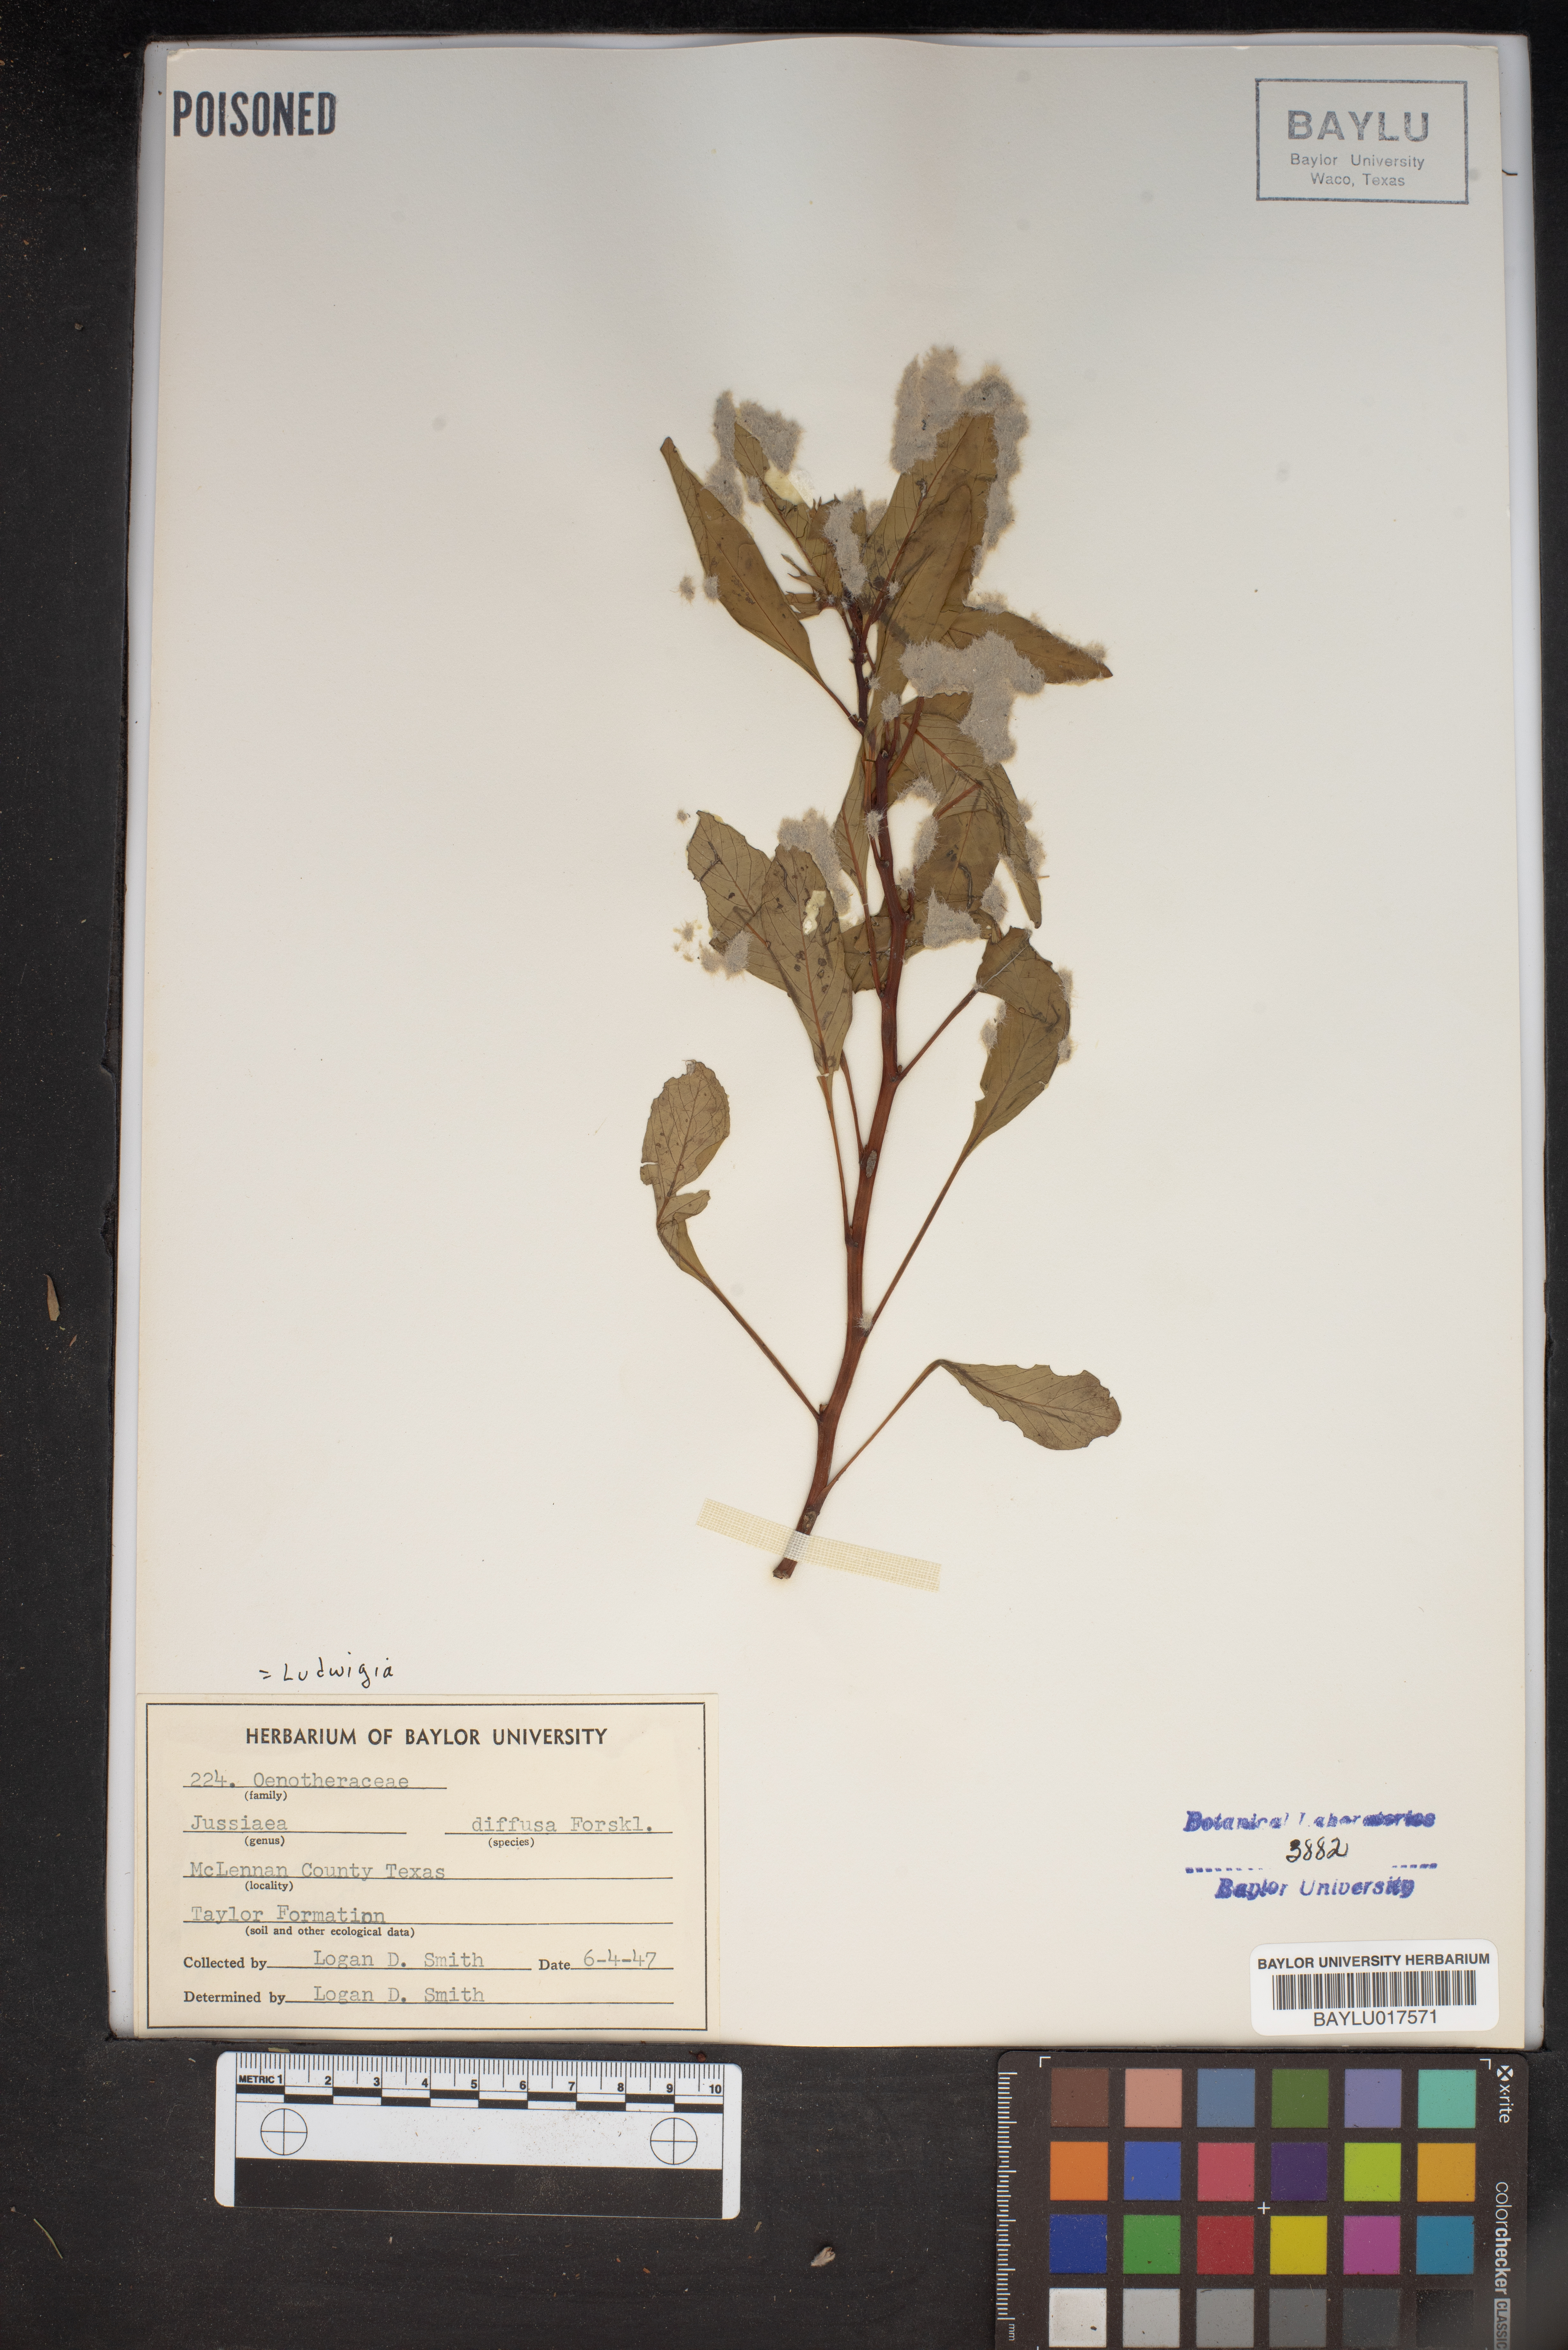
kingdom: Plantae
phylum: Tracheophyta
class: Magnoliopsida
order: Myrtales
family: Onagraceae
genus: Ludwigia
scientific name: Ludwigia adscendens
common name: Creeping water primrose
